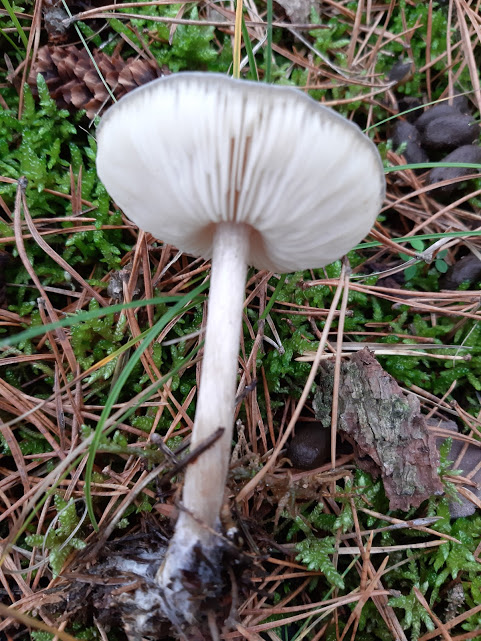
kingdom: Fungi
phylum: Basidiomycota
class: Agaricomycetes
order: Agaricales
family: Tricholomataceae
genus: Melanoleuca
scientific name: Melanoleuca
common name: munkehat
